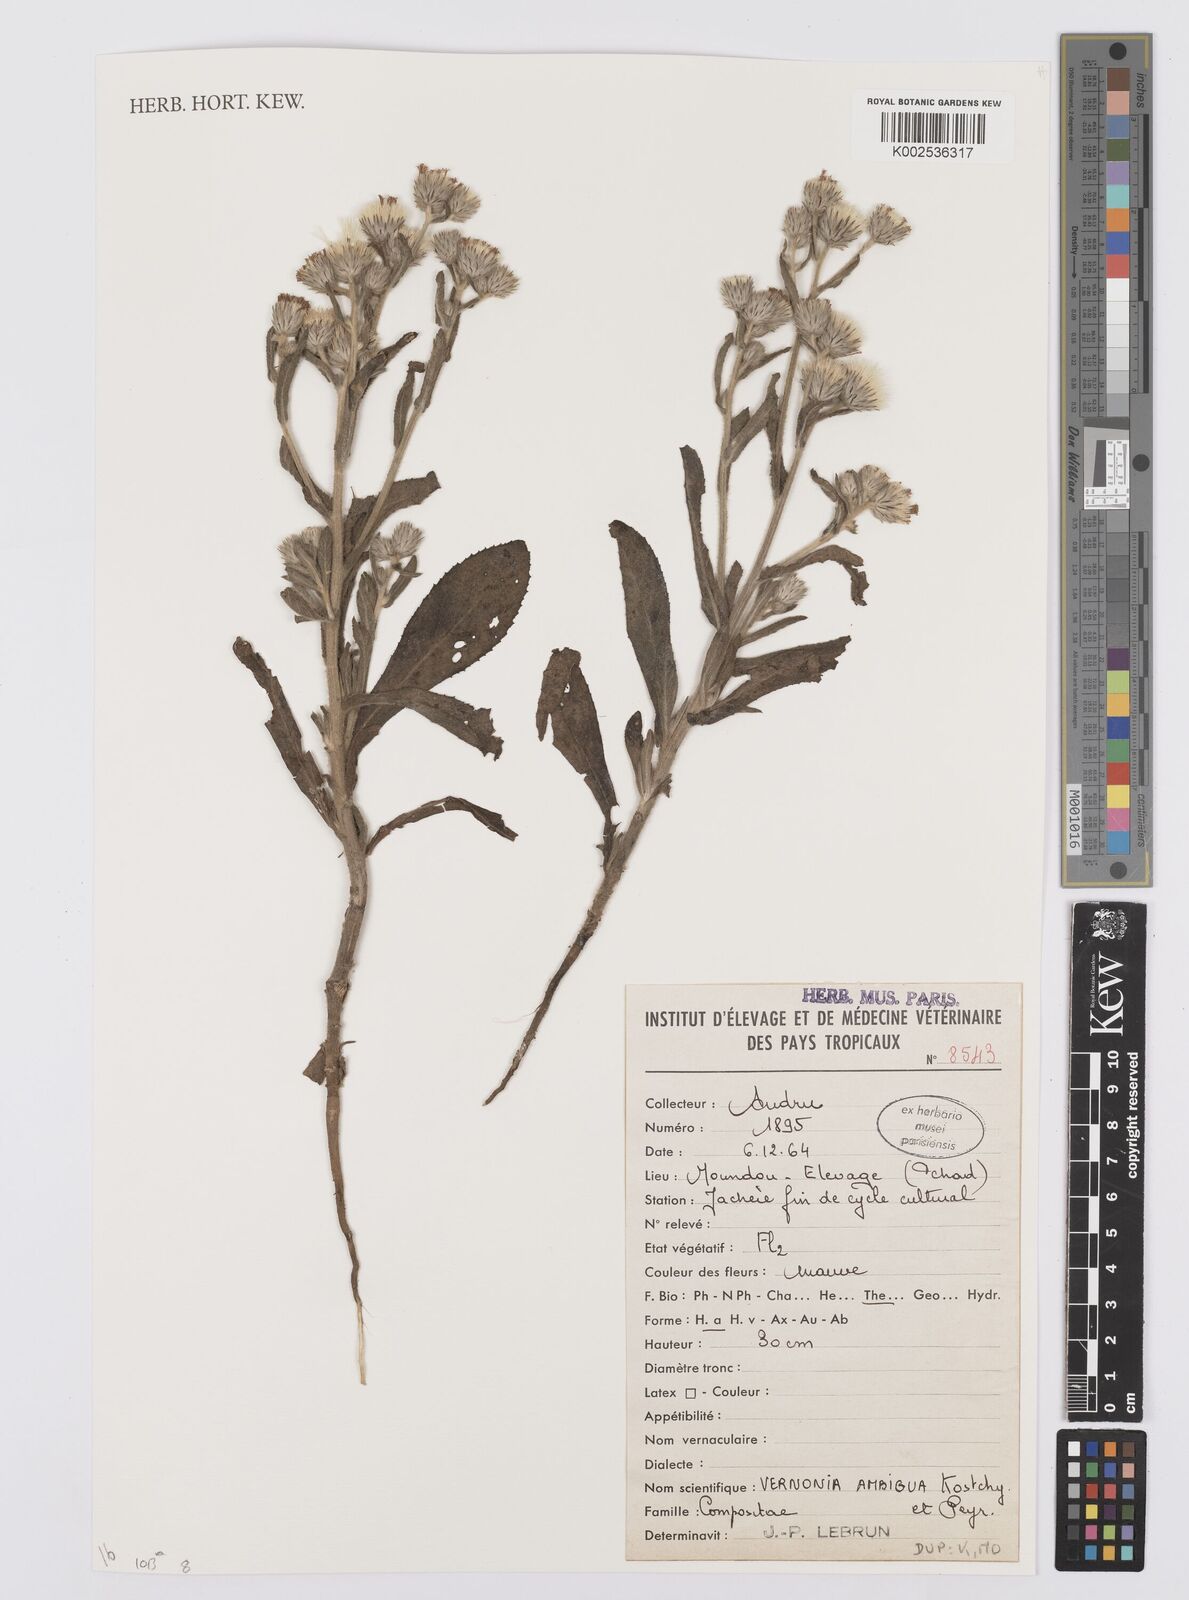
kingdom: Plantae
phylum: Tracheophyta
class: Magnoliopsida
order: Asterales
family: Asteraceae
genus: Vernoniastrum
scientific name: Vernoniastrum ambiguum
